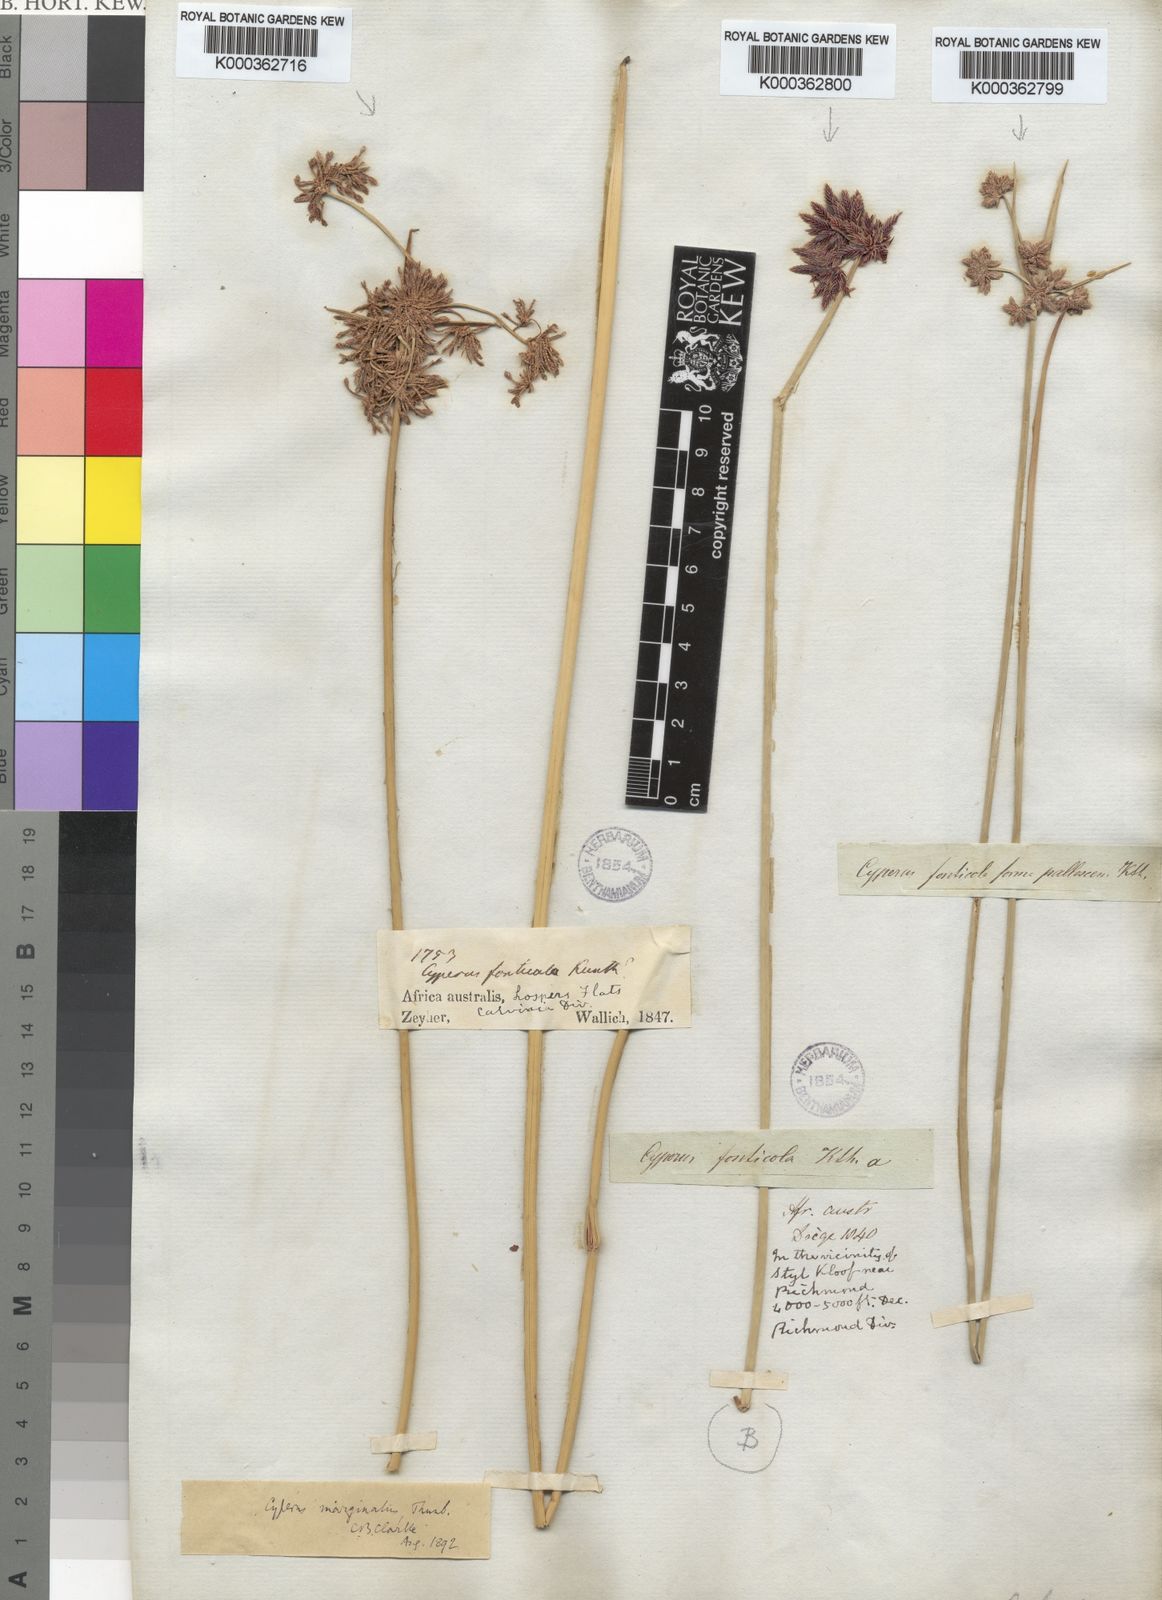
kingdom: Plantae
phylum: Tracheophyta
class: Liliopsida
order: Poales
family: Cyperaceae
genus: Cyperus
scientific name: Cyperus marginatus
